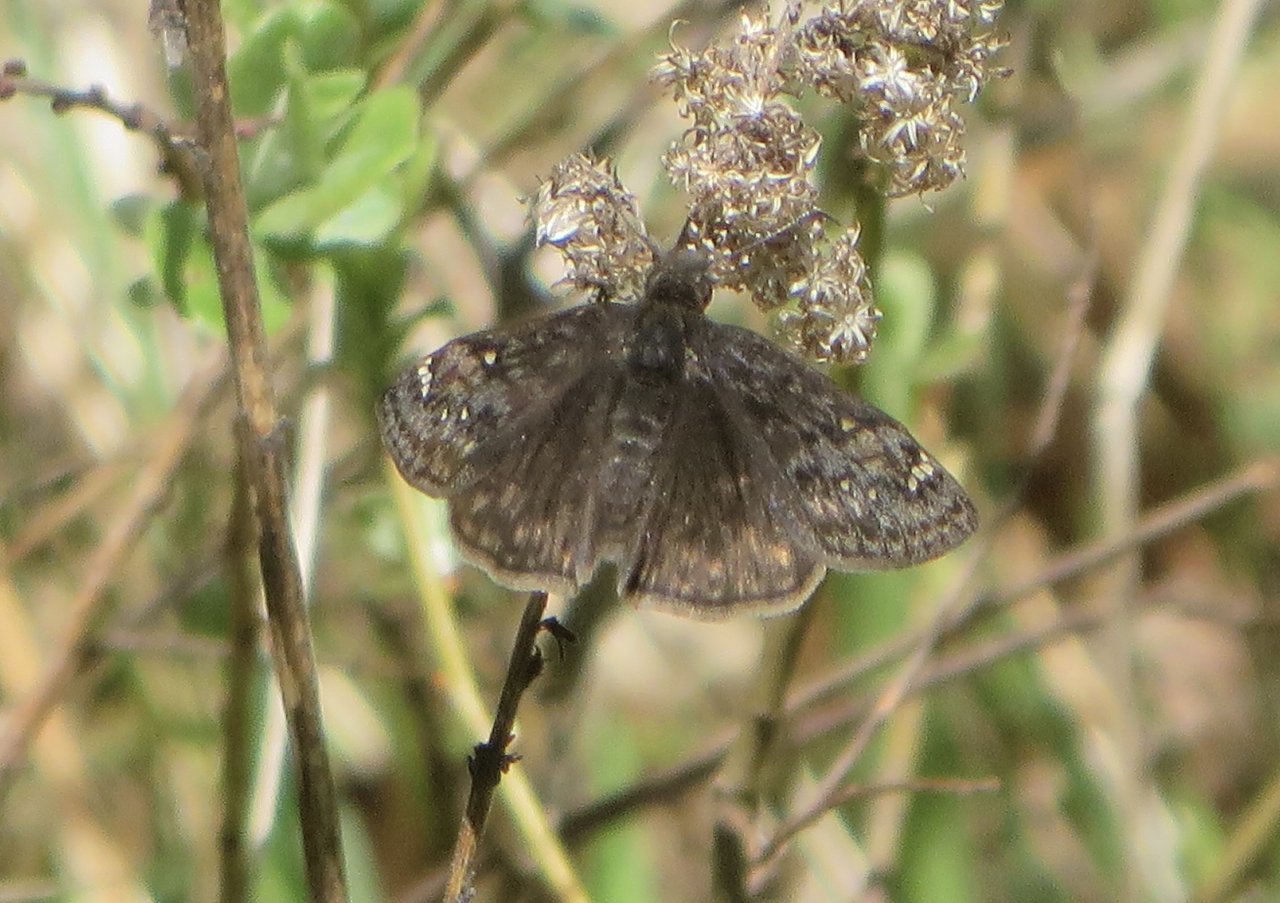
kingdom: Animalia
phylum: Arthropoda
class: Insecta
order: Lepidoptera
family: Hesperiidae
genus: Gesta
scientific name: Gesta
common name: Juvenal's Duskywing
